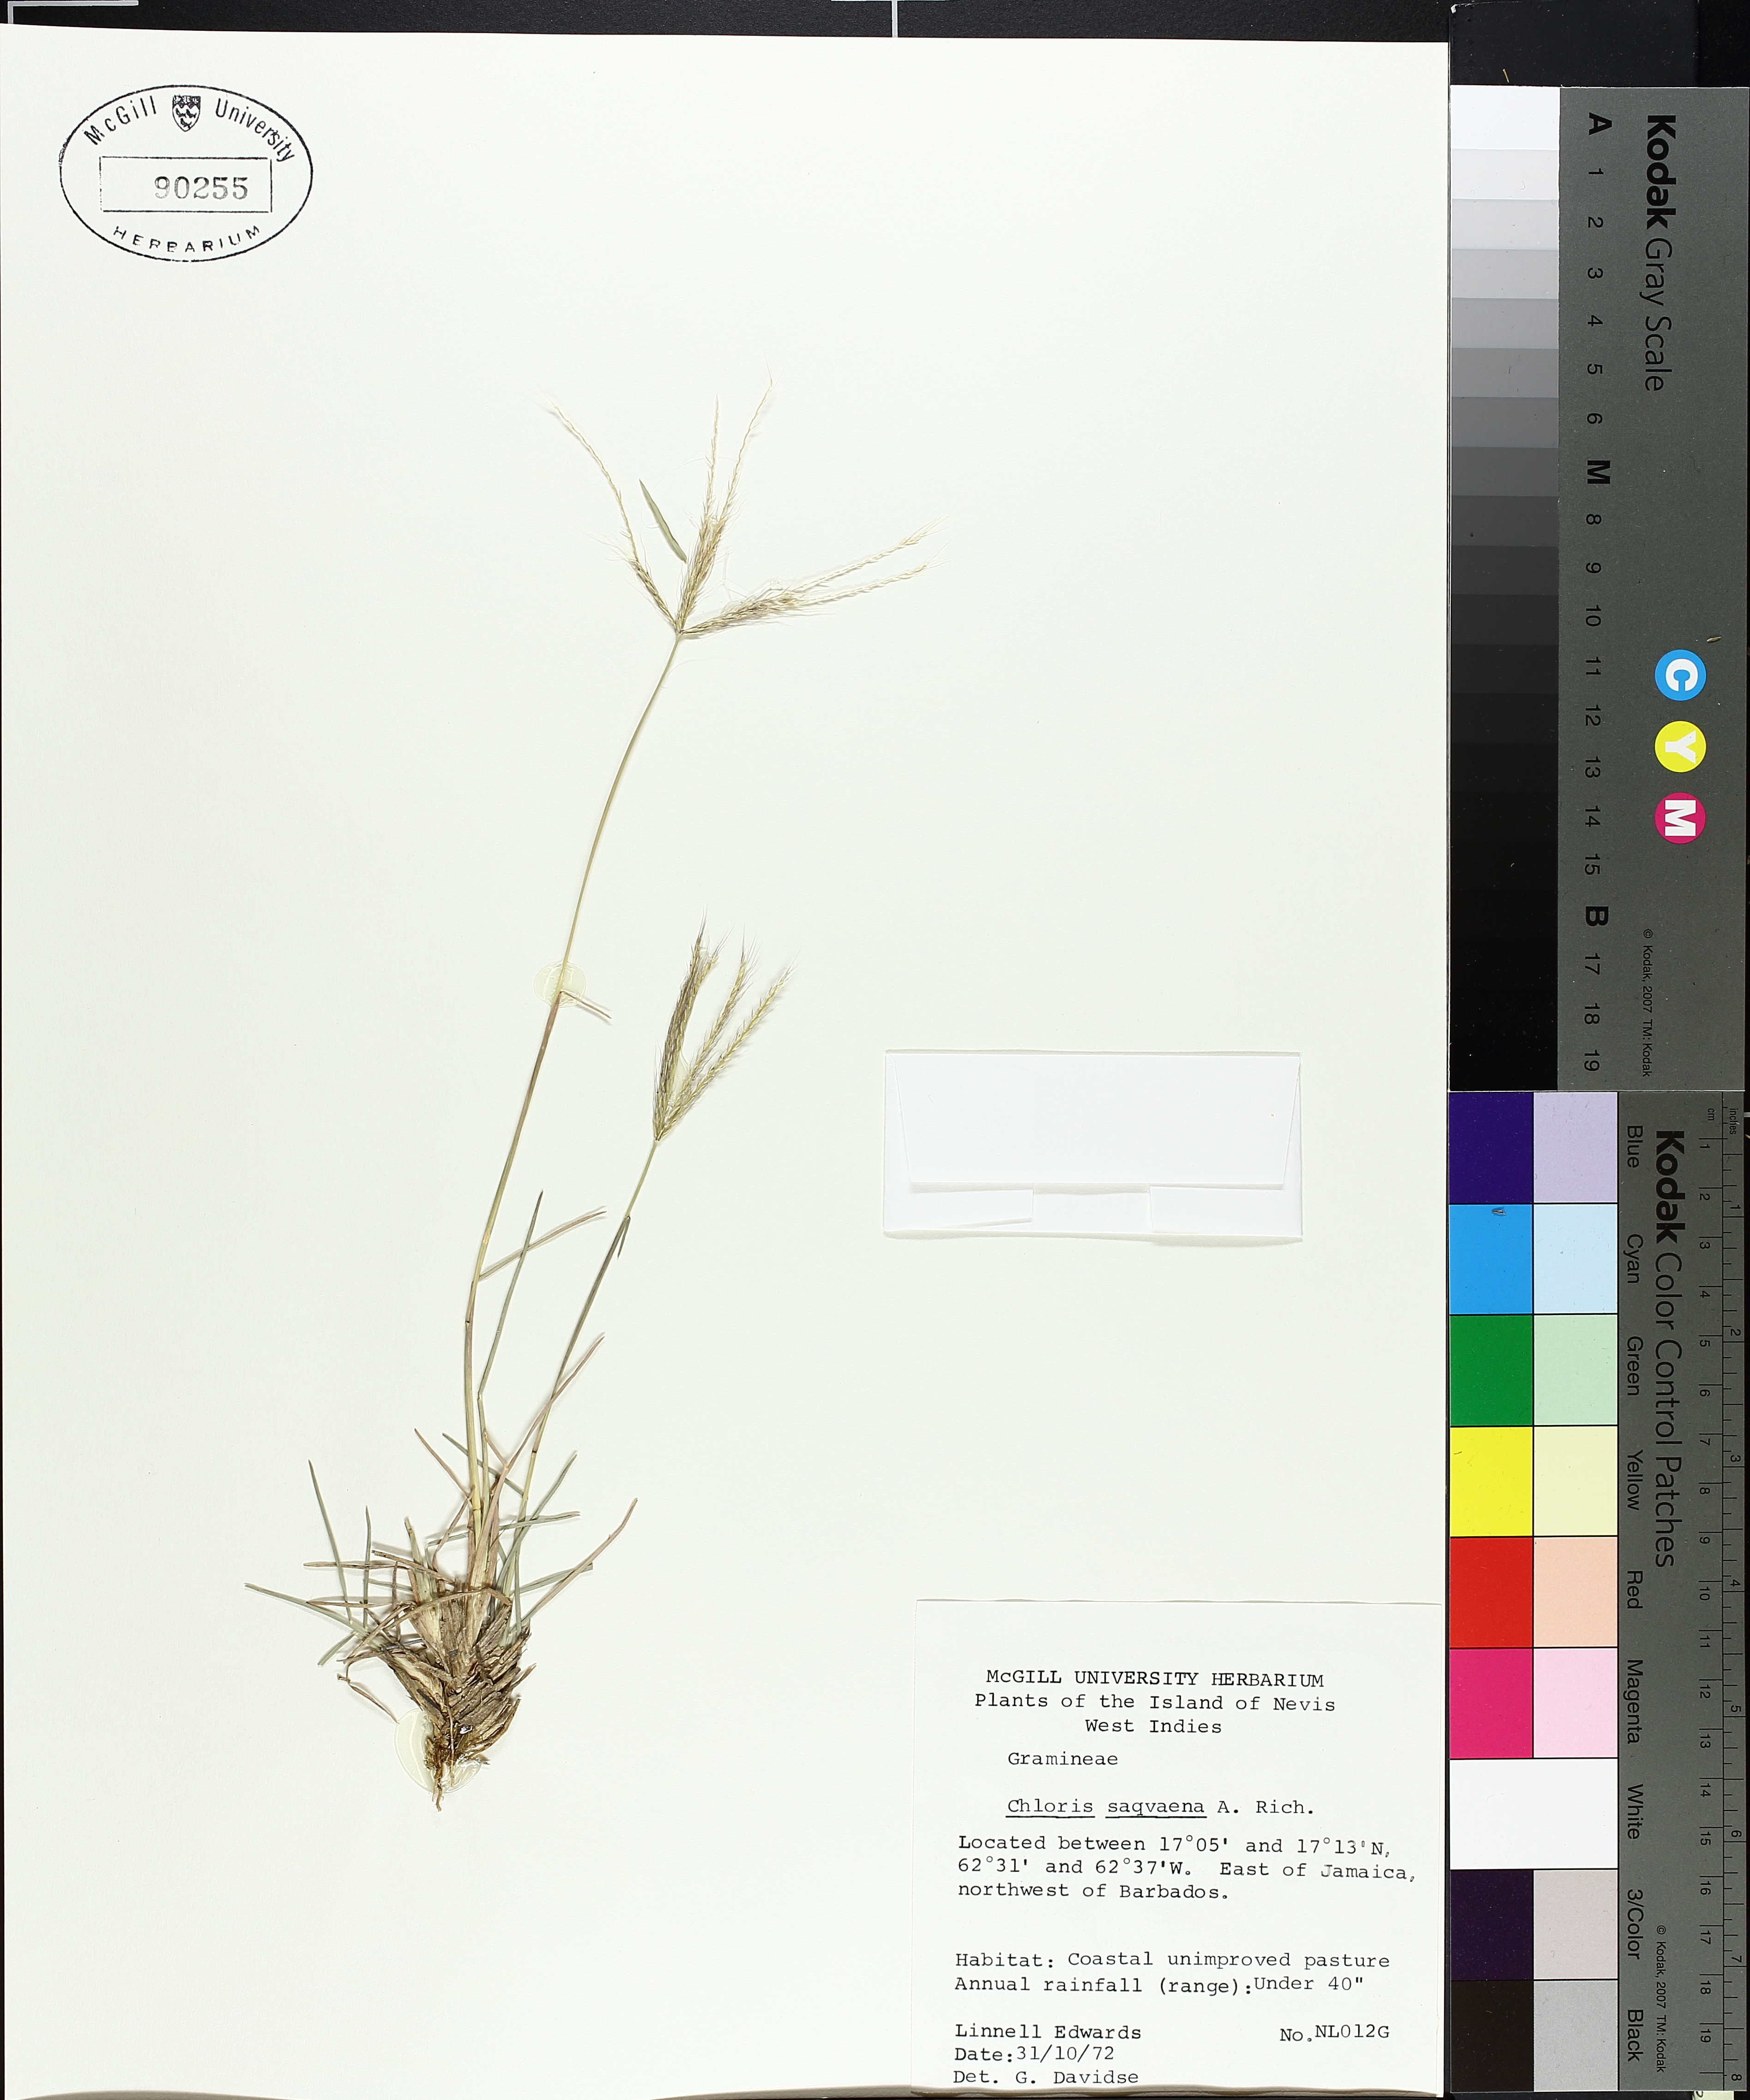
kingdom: Plantae
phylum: Tracheophyta
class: Liliopsida
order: Poales
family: Poaceae
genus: Chloris
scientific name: Chloris sagraeana
